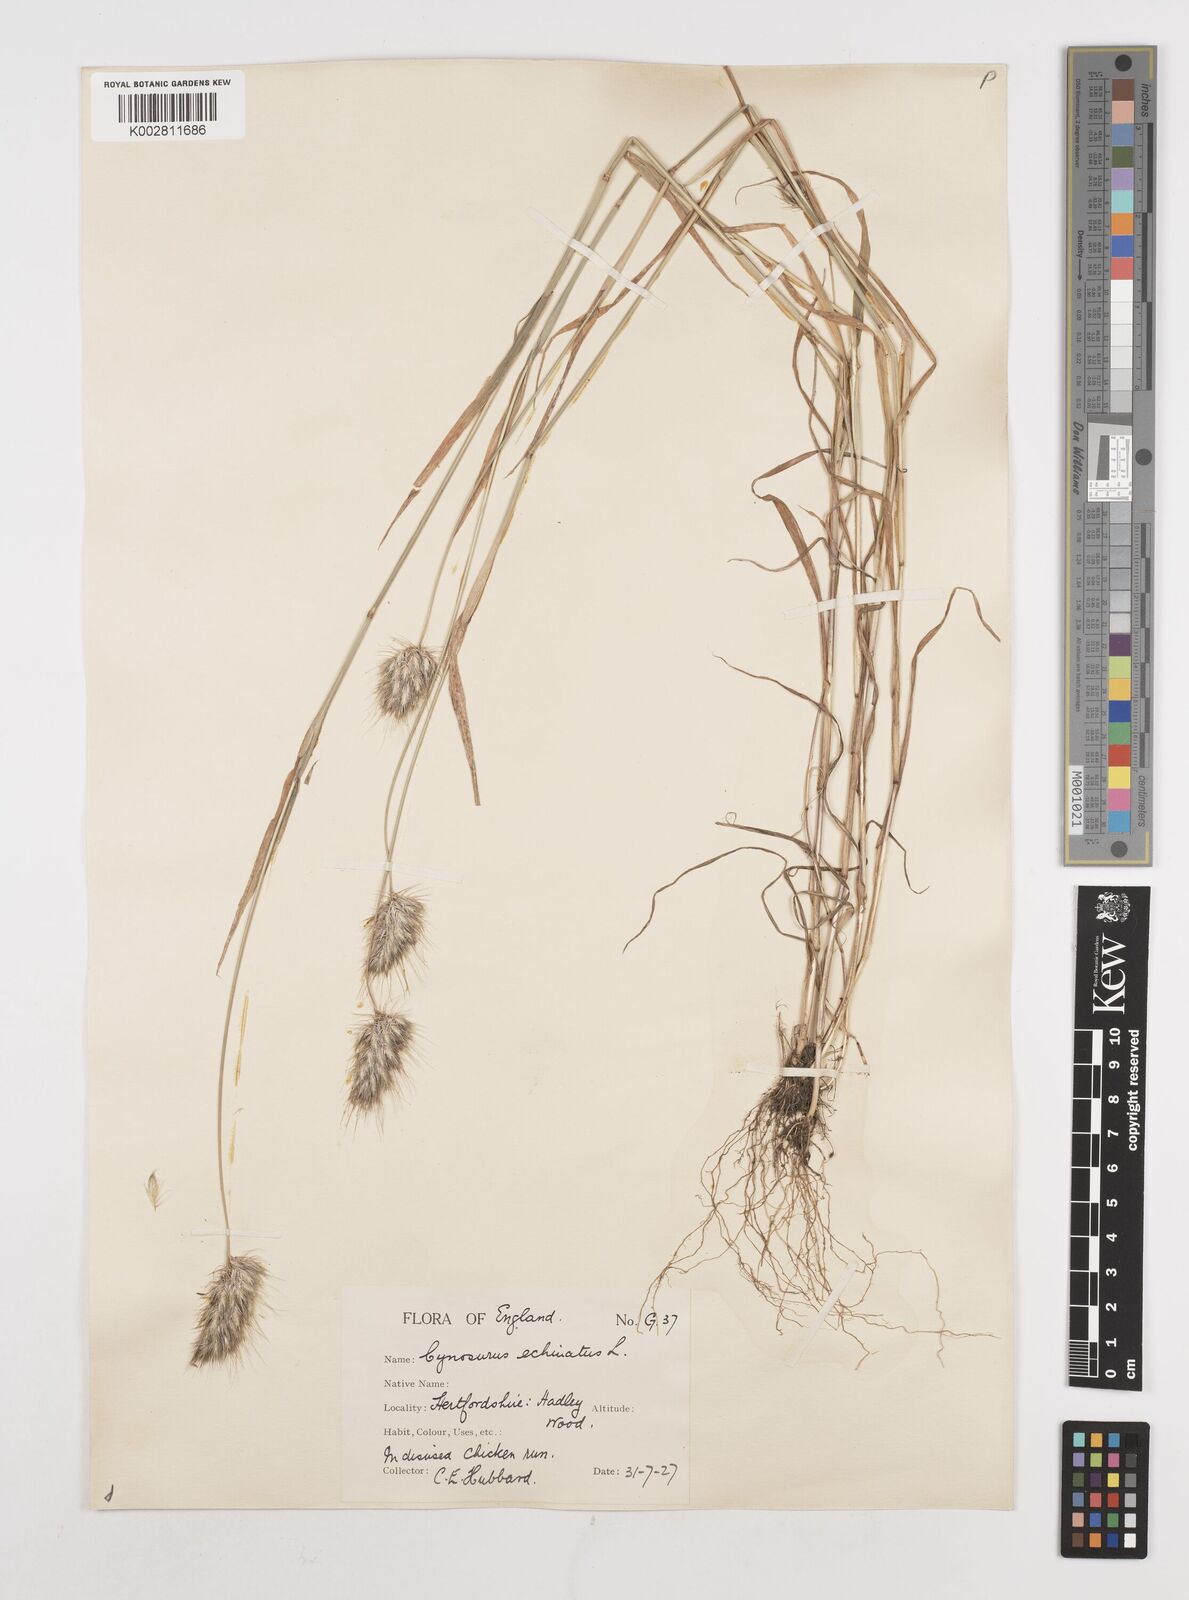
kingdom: Plantae
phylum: Tracheophyta
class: Liliopsida
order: Poales
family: Poaceae
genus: Cynosurus
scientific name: Cynosurus echinatus
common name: Rough dog's-tail
